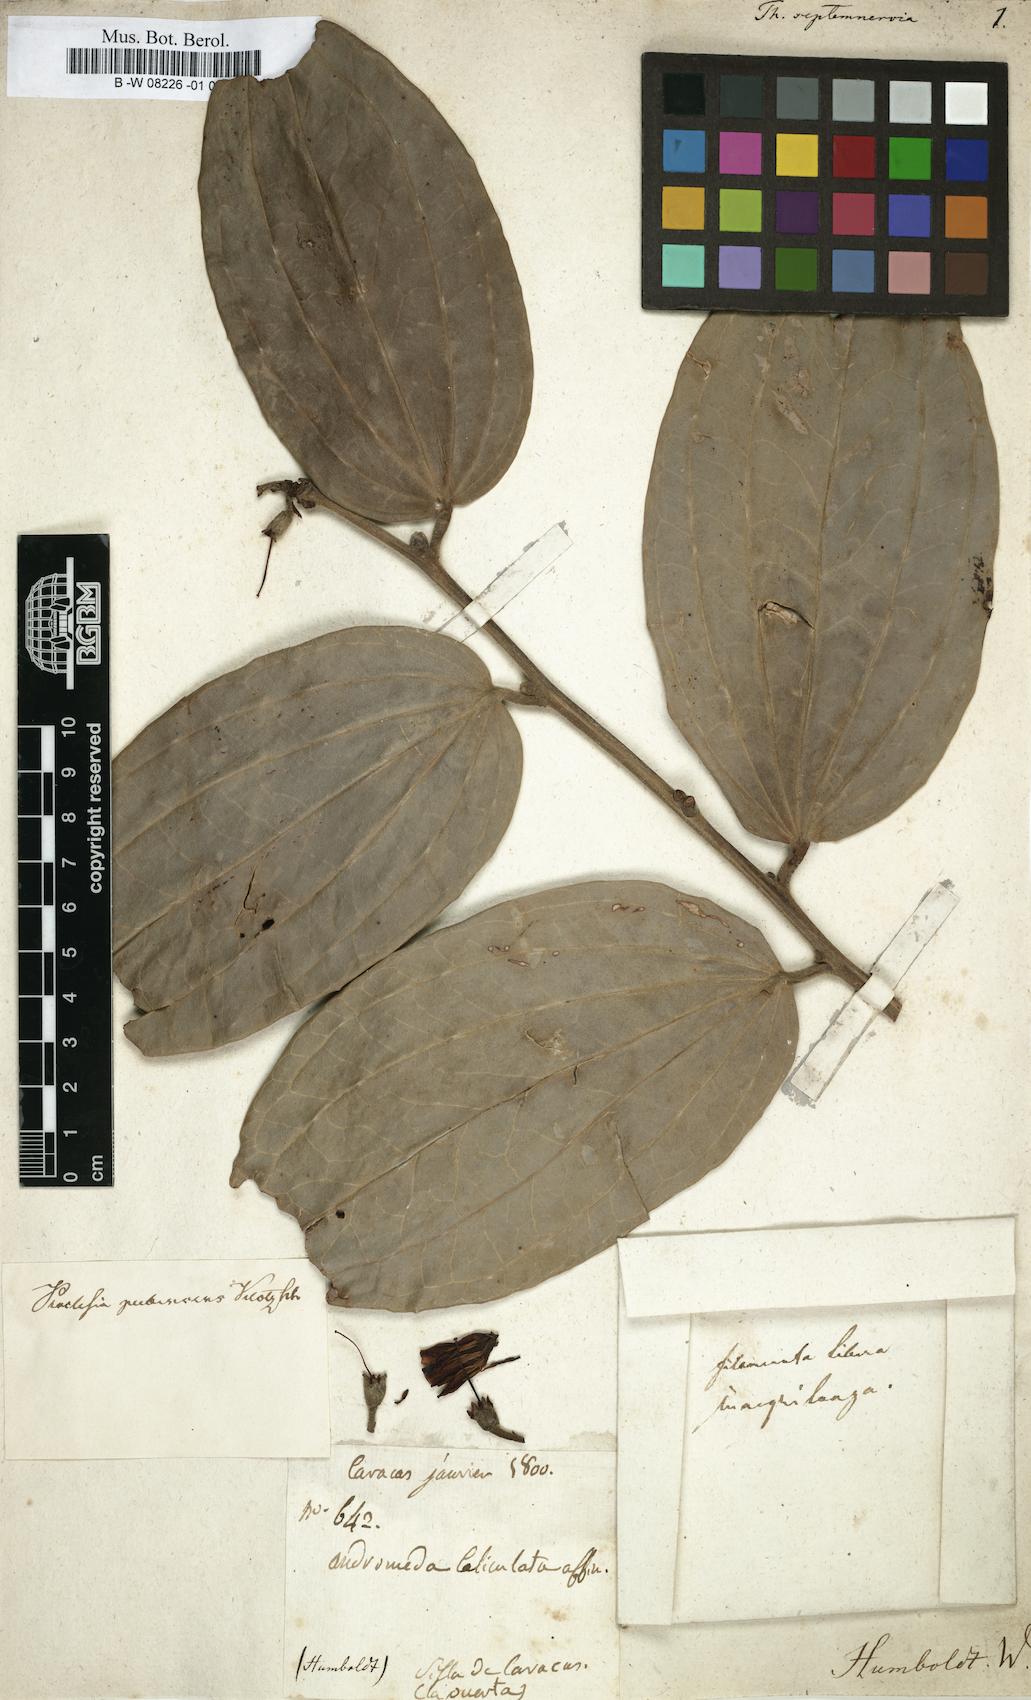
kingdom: Plantae
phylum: Tracheophyta
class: Magnoliopsida
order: Ericales
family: Ericaceae
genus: Cavendishia
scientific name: Cavendishia pubescens
